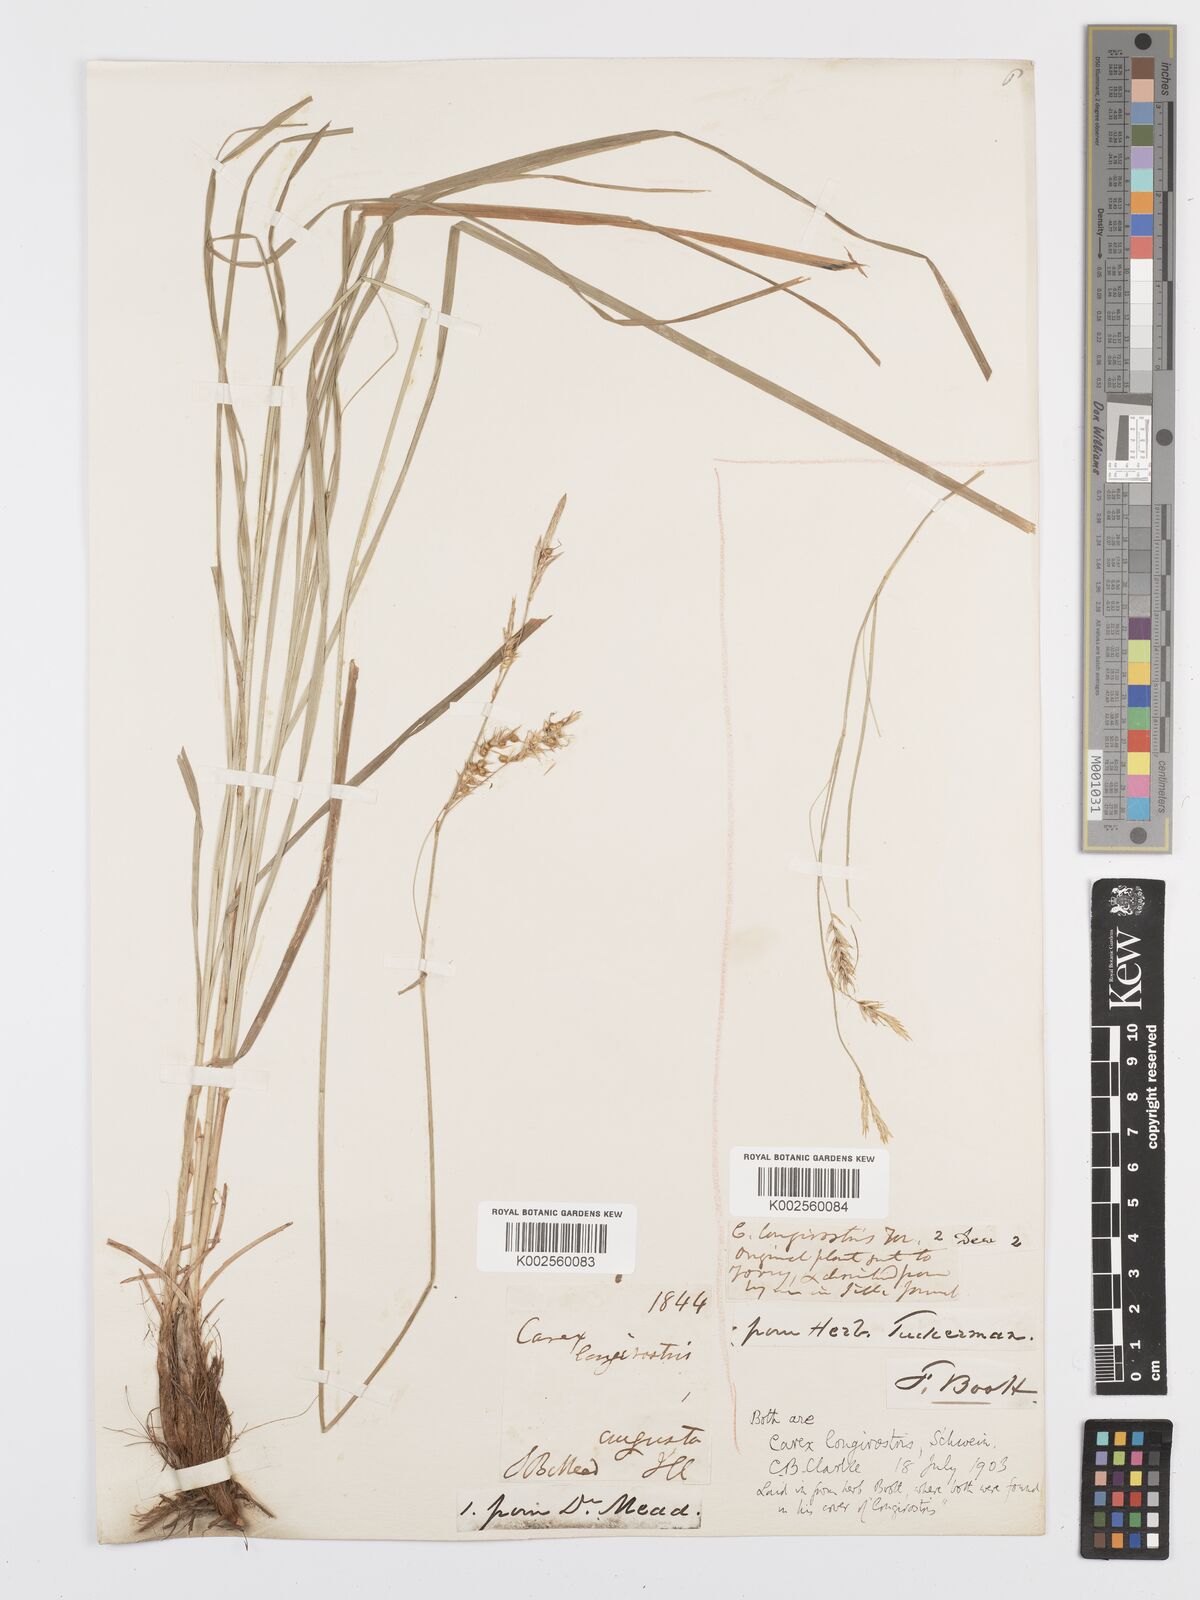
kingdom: Plantae
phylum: Tracheophyta
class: Liliopsida
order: Poales
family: Cyperaceae
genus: Carex
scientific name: Carex sprengelii
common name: Long-beaked sedge
